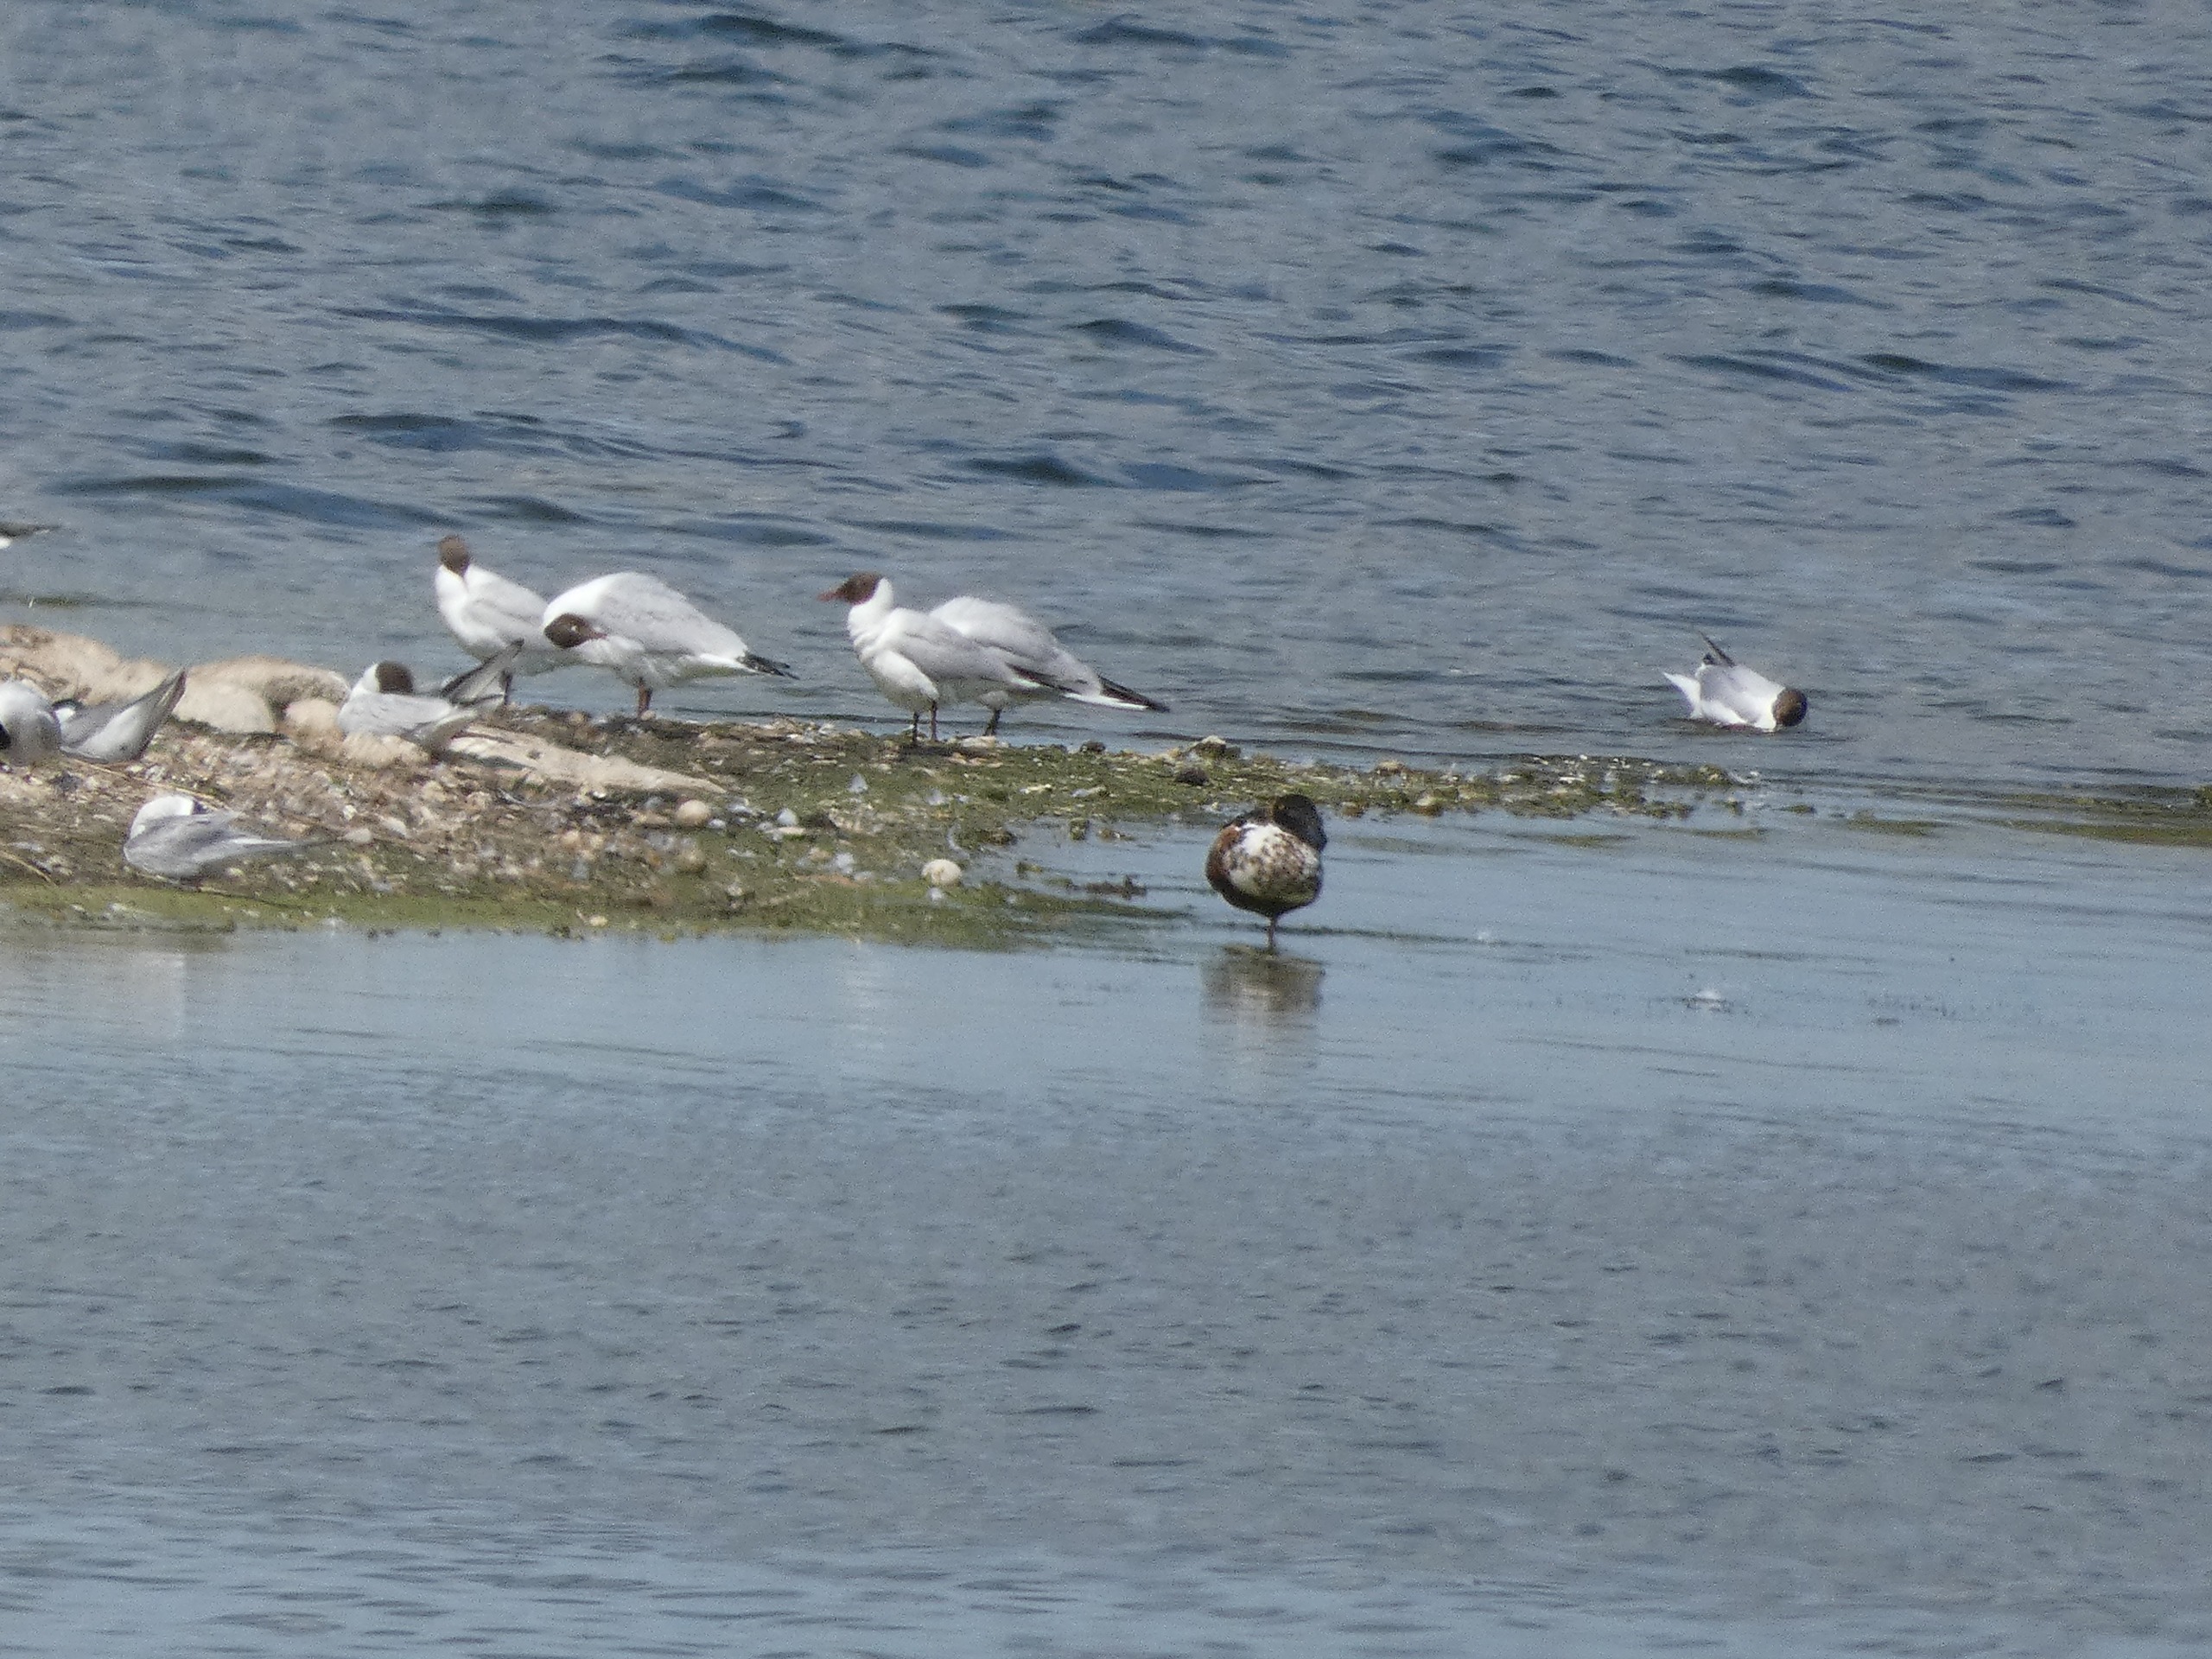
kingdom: Animalia
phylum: Chordata
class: Aves
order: Anseriformes
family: Anatidae
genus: Spatula
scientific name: Spatula clypeata
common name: Skeand
